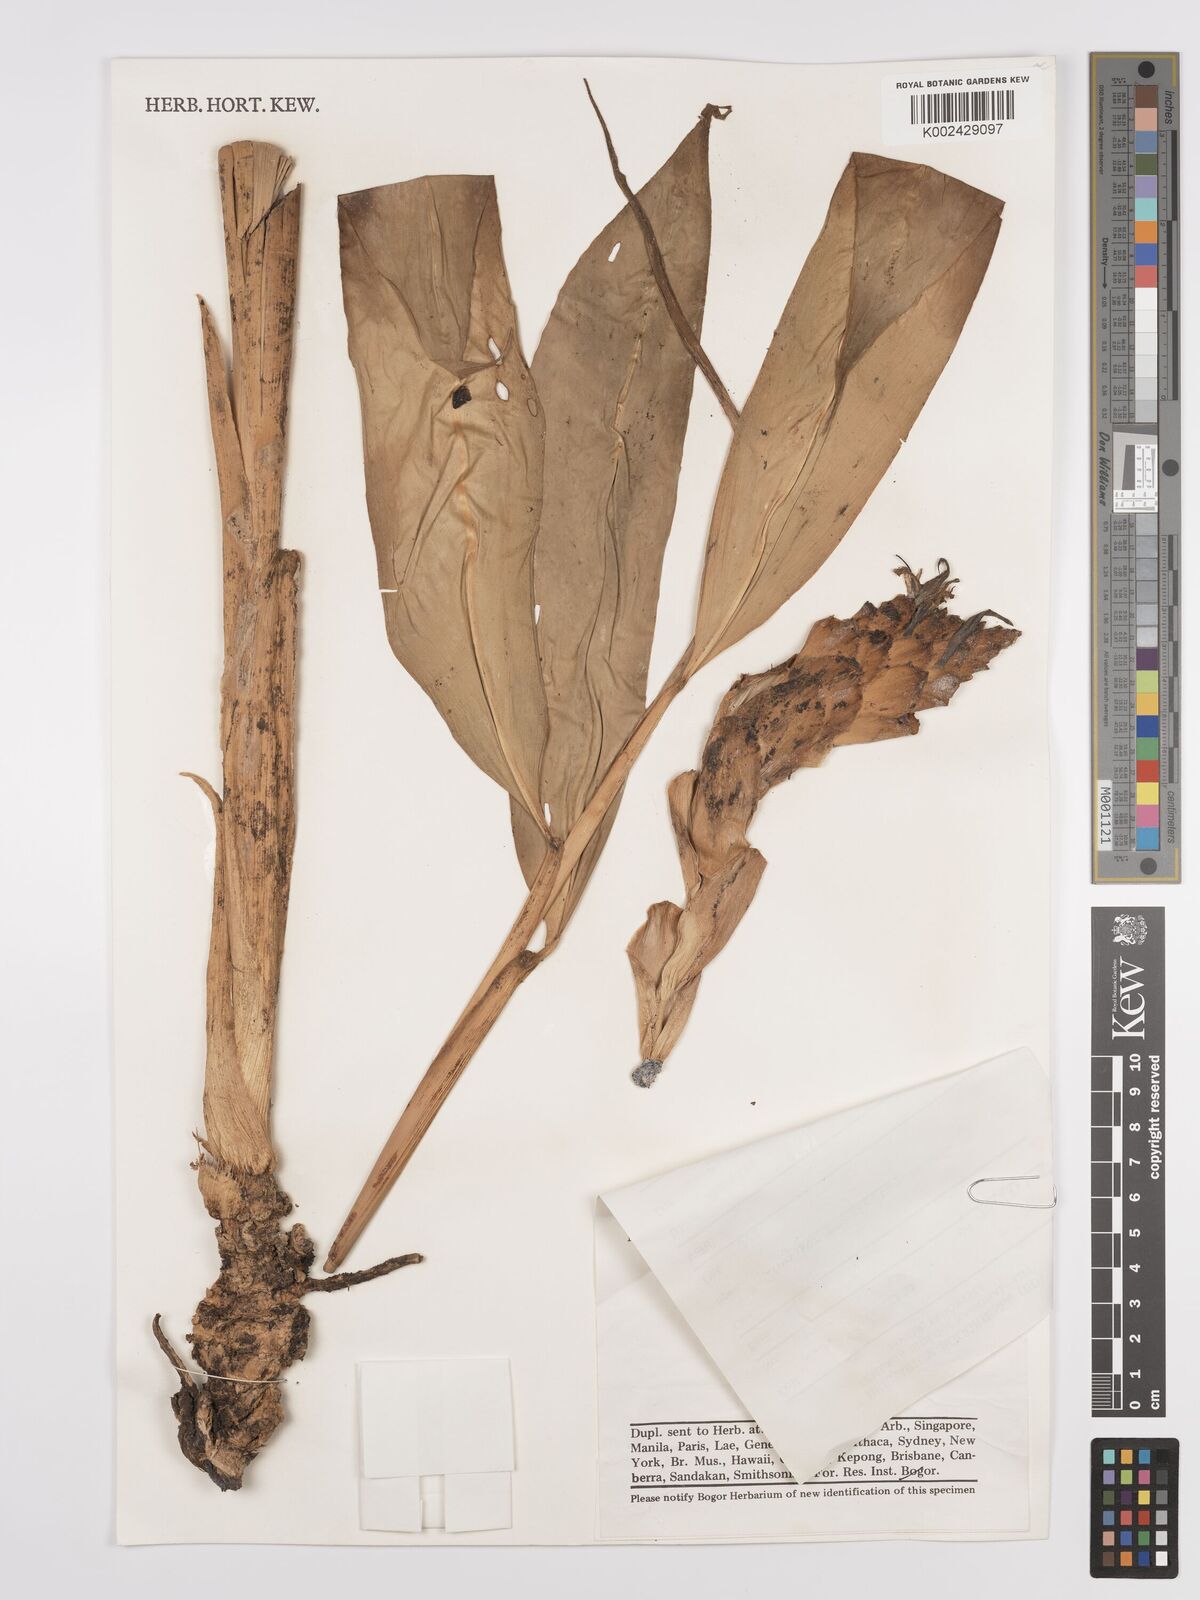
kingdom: Plantae
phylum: Tracheophyta
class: Liliopsida
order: Zingiberales
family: Zingiberaceae
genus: Zingiber
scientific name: Zingiber acuminatum
